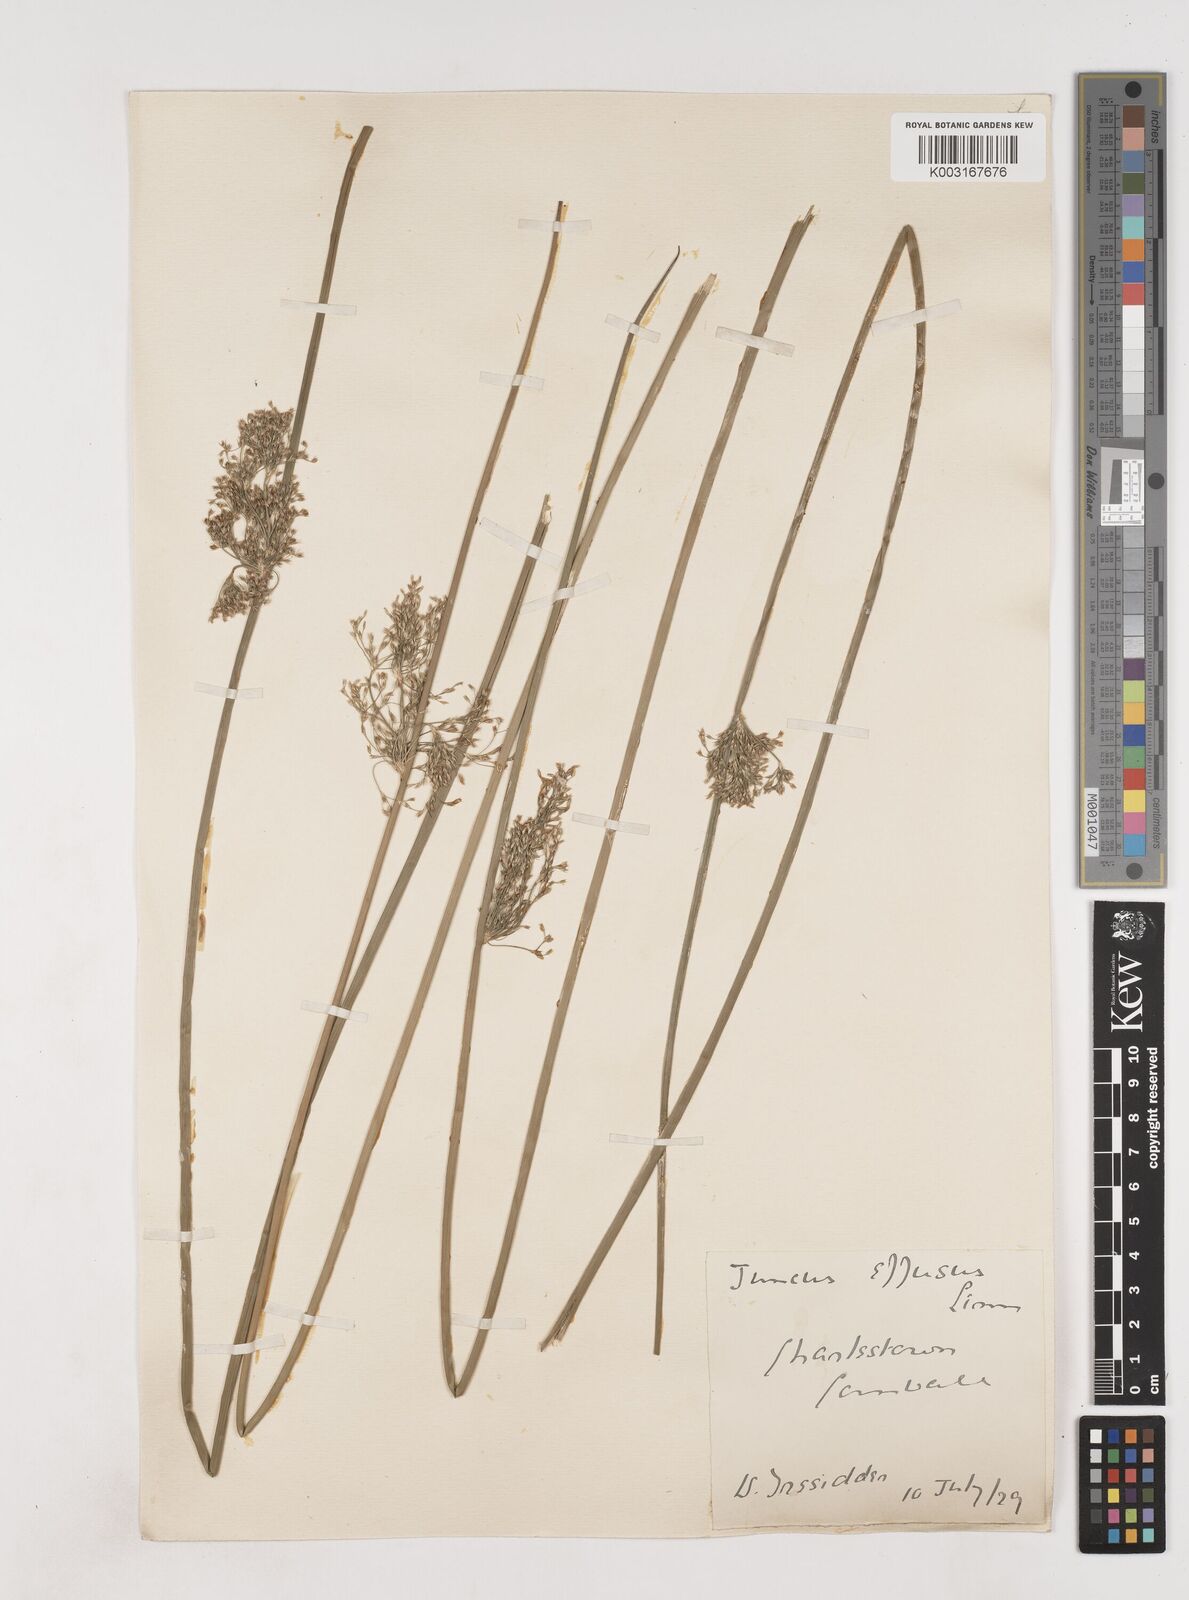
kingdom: Plantae
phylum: Tracheophyta
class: Liliopsida
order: Poales
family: Juncaceae
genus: Juncus
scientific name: Juncus effusus
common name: Soft rush
